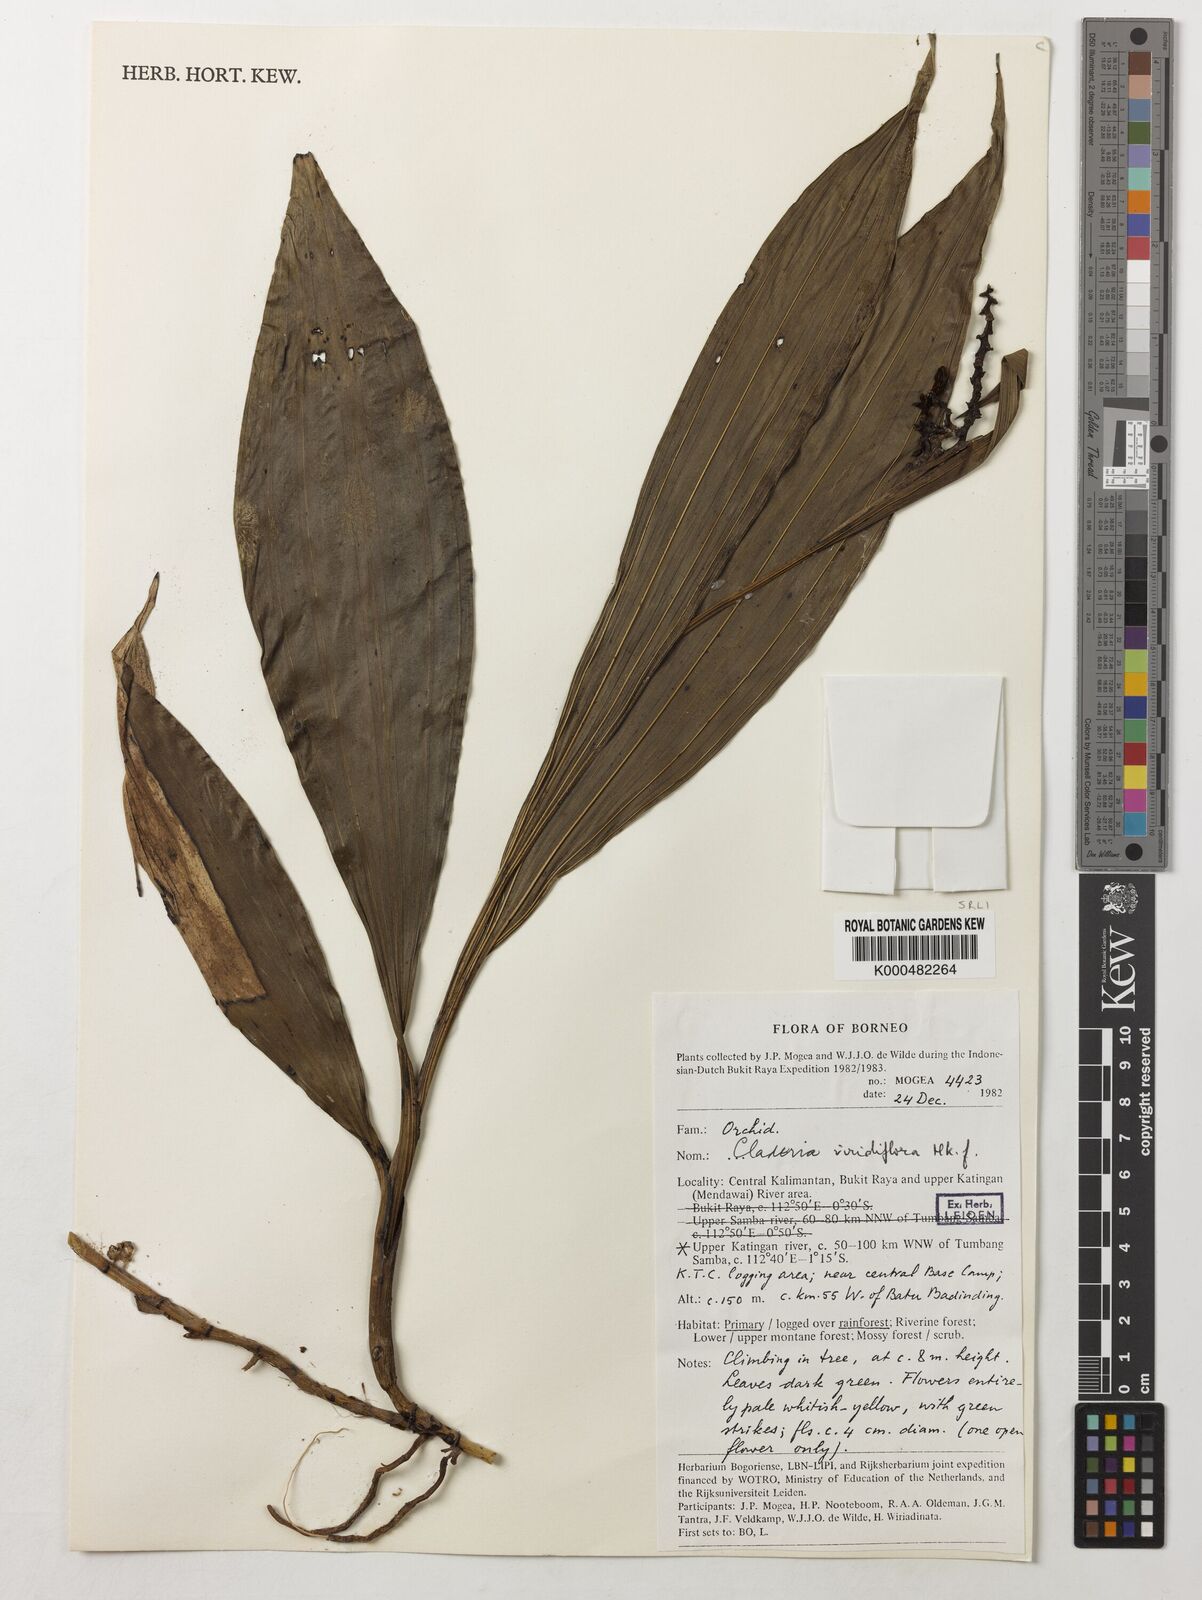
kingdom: Plantae
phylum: Tracheophyta
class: Liliopsida
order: Asparagales
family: Orchidaceae
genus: Claderia
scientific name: Claderia
